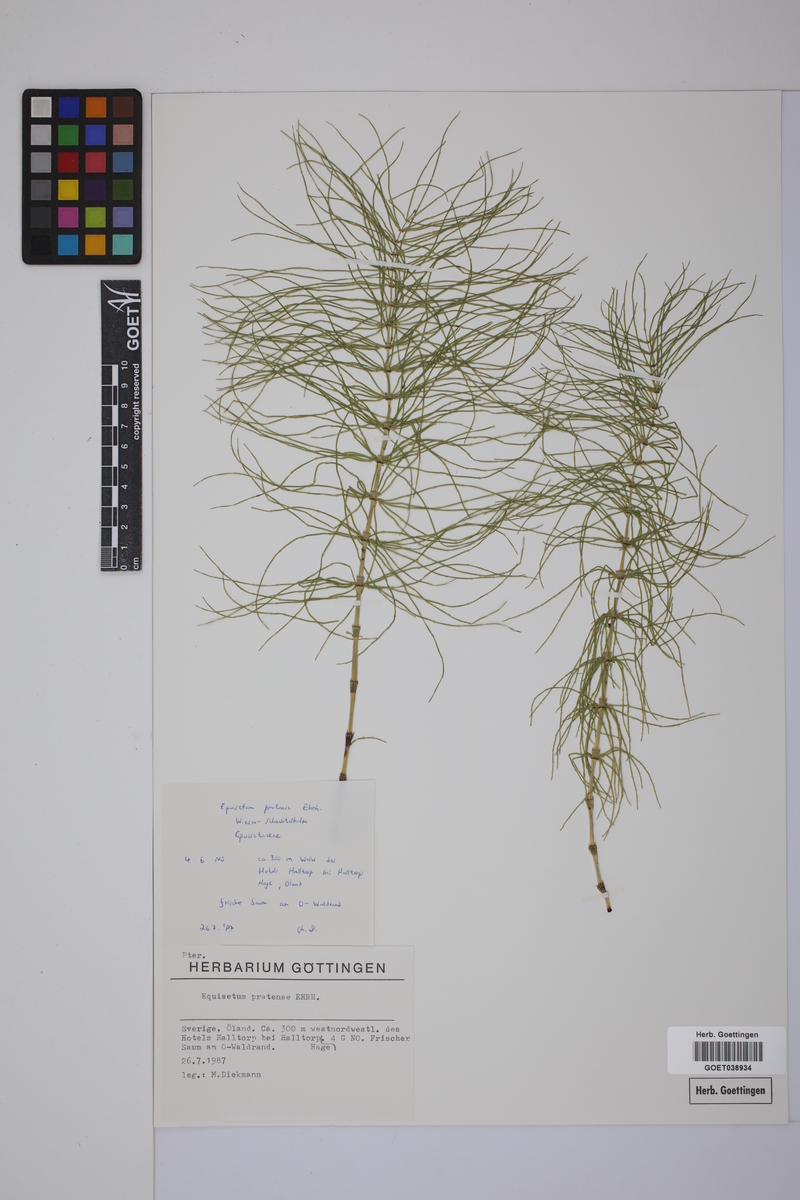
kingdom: Plantae
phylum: Tracheophyta
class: Polypodiopsida
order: Equisetales
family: Equisetaceae
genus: Equisetum
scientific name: Equisetum pratense
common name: Meadow horsetail
